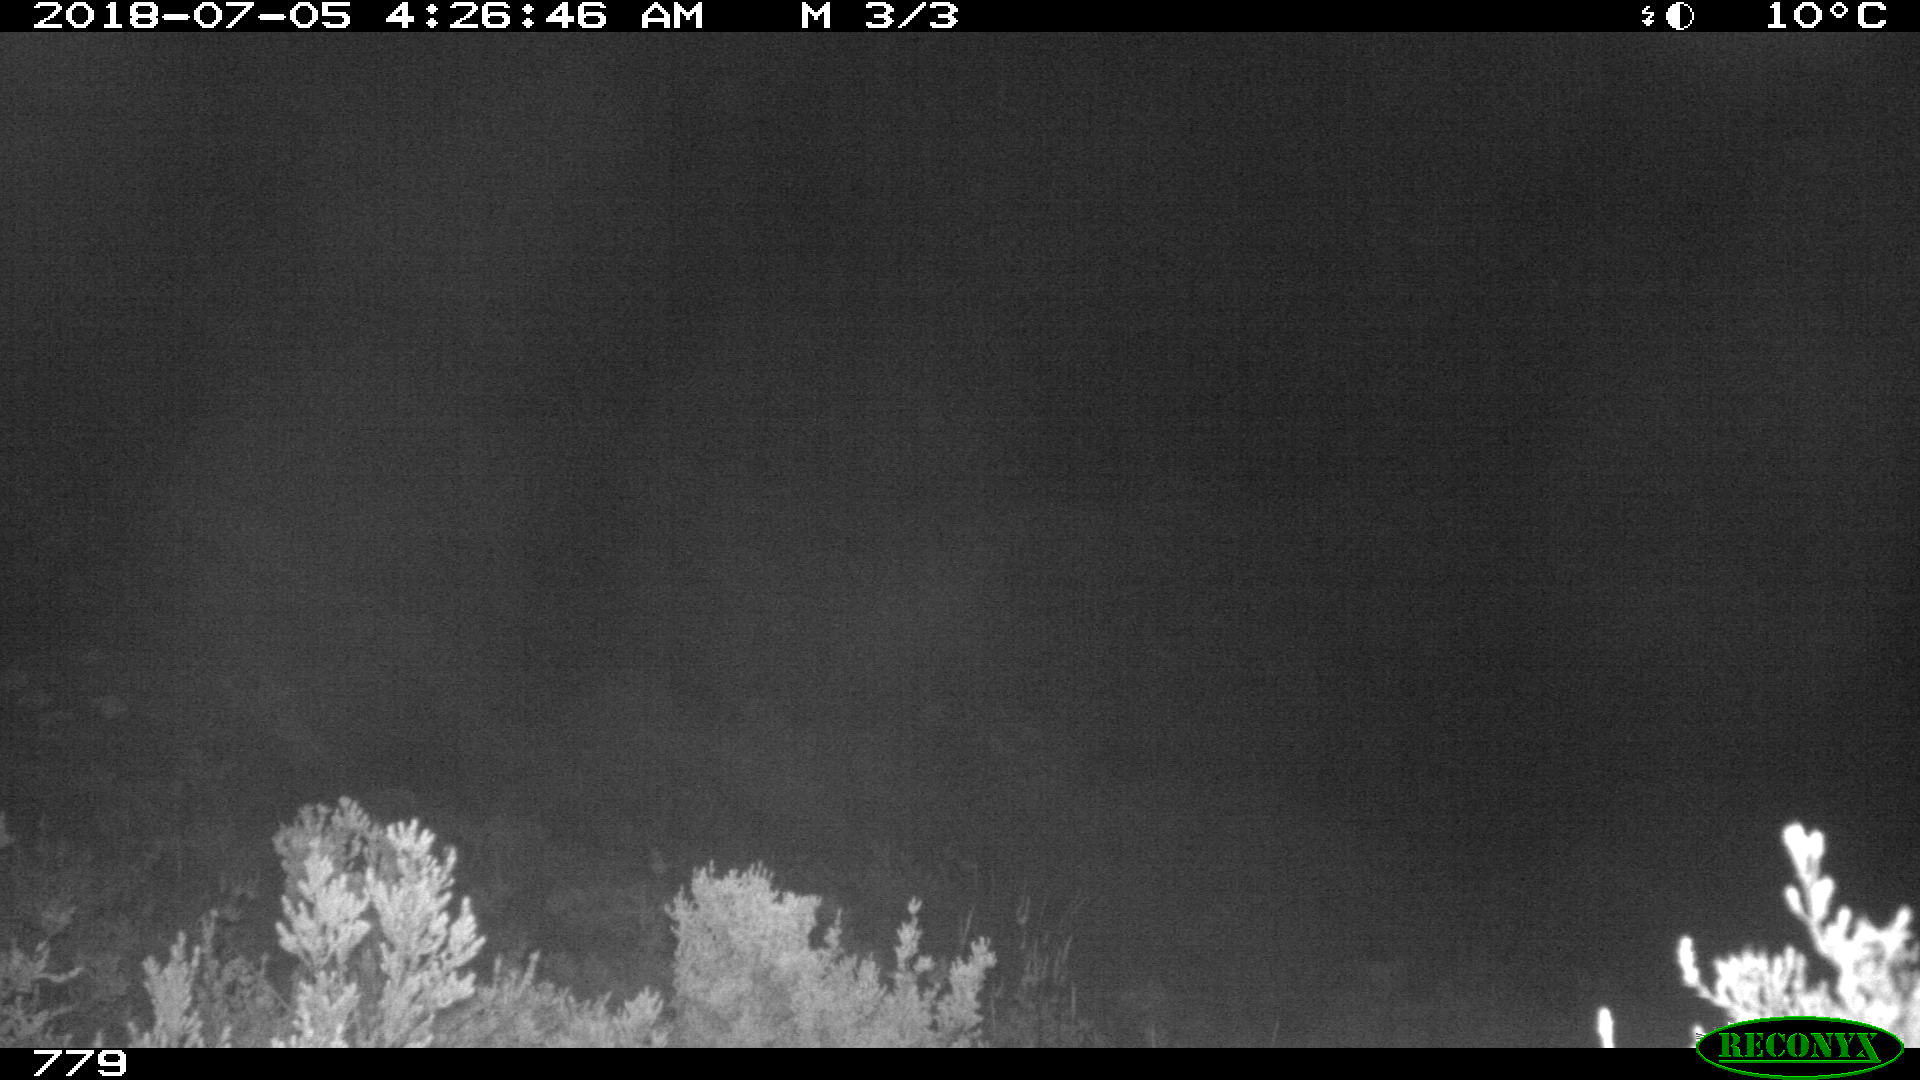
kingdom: Animalia
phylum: Chordata
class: Mammalia
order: Perissodactyla
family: Equidae
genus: Equus
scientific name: Equus caballus
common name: Horse
